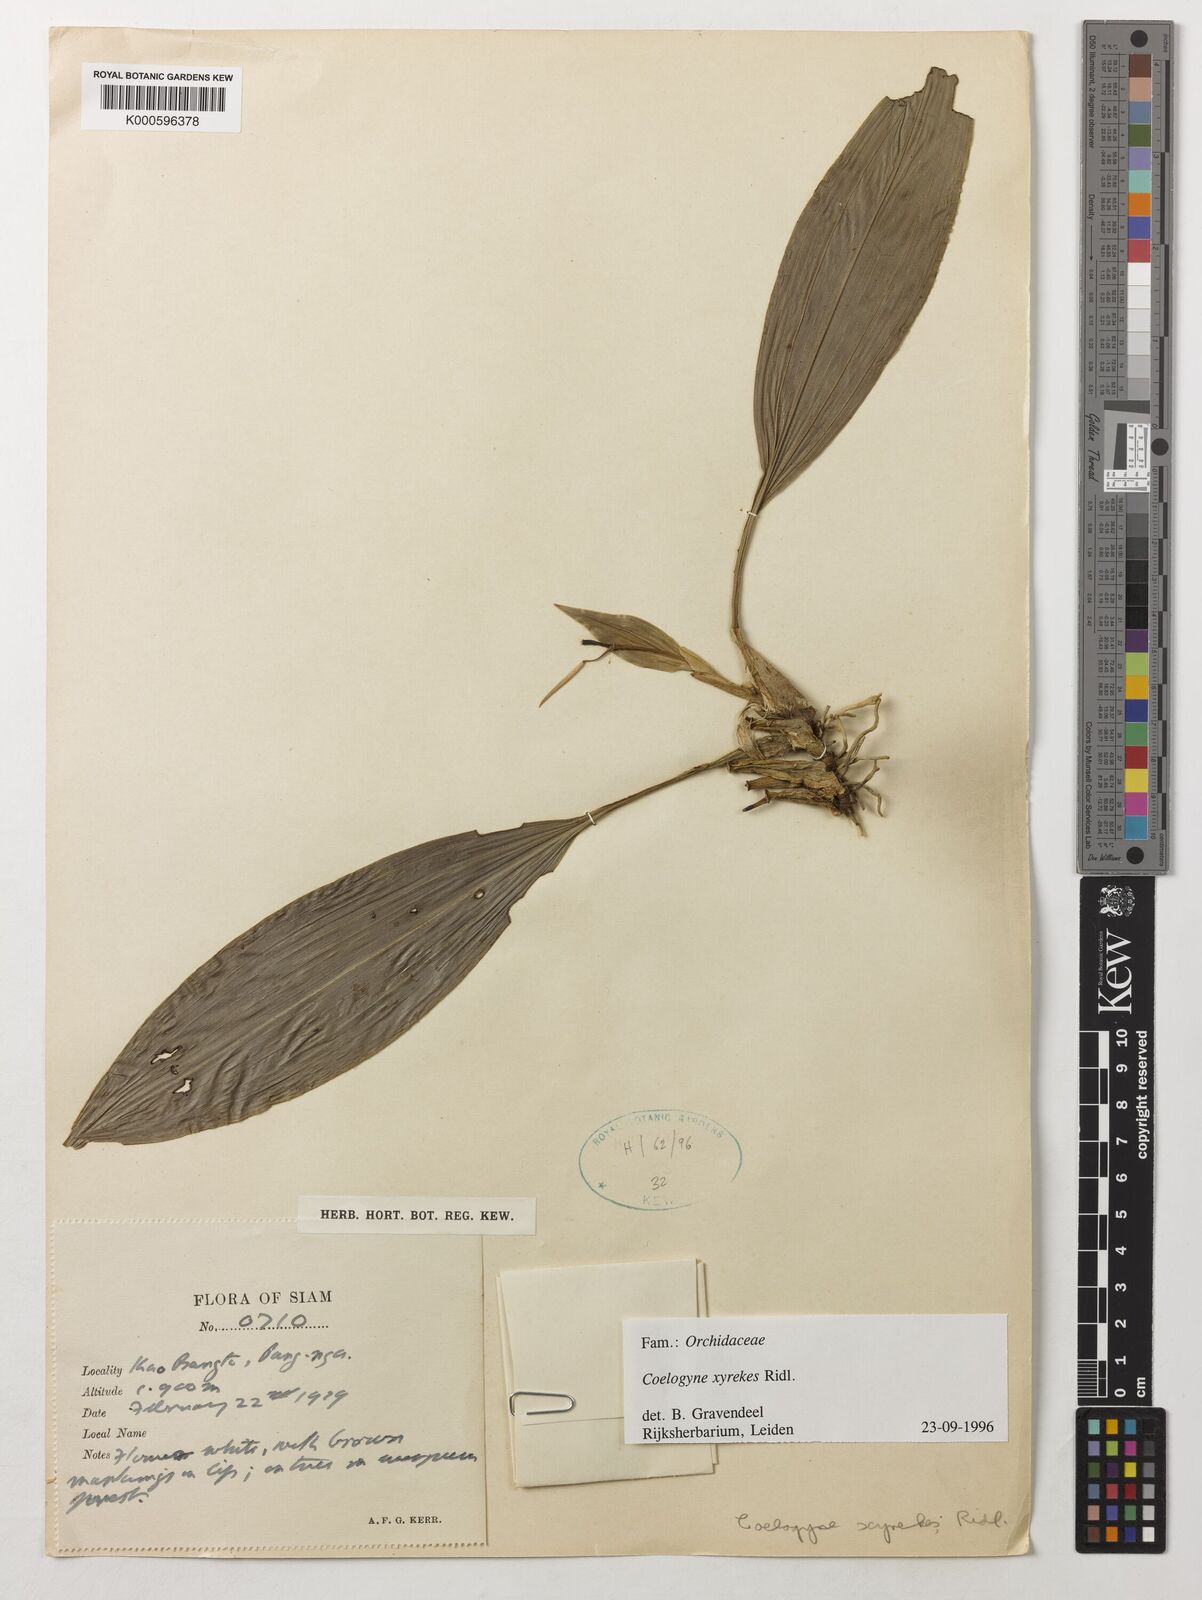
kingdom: Plantae
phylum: Tracheophyta
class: Liliopsida
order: Asparagales
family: Orchidaceae
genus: Coelogyne
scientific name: Coelogyne xyrekes
